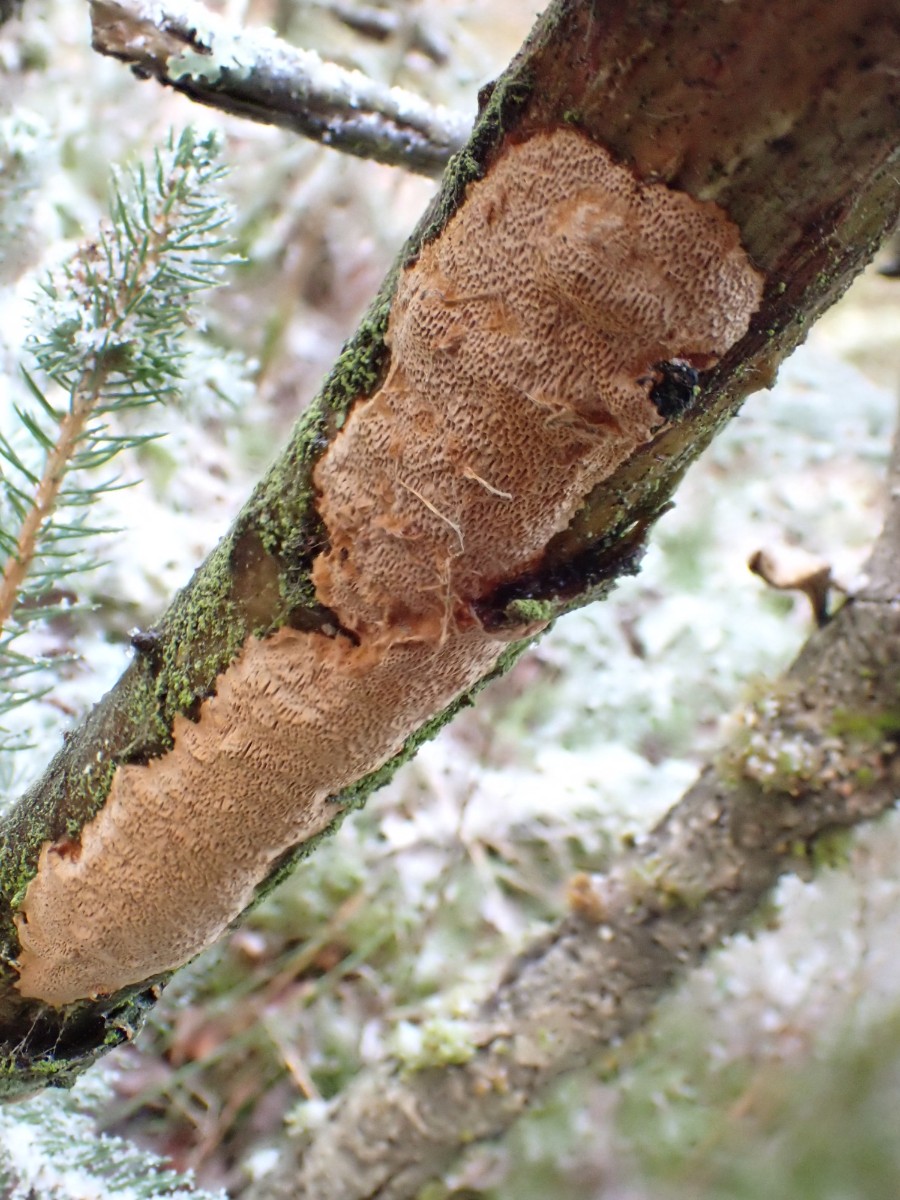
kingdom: Fungi
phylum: Basidiomycota
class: Agaricomycetes
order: Hymenochaetales
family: Hymenochaetaceae
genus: Fuscoporia
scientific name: Fuscoporia ferrea
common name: skorpe-ildporesvamp
